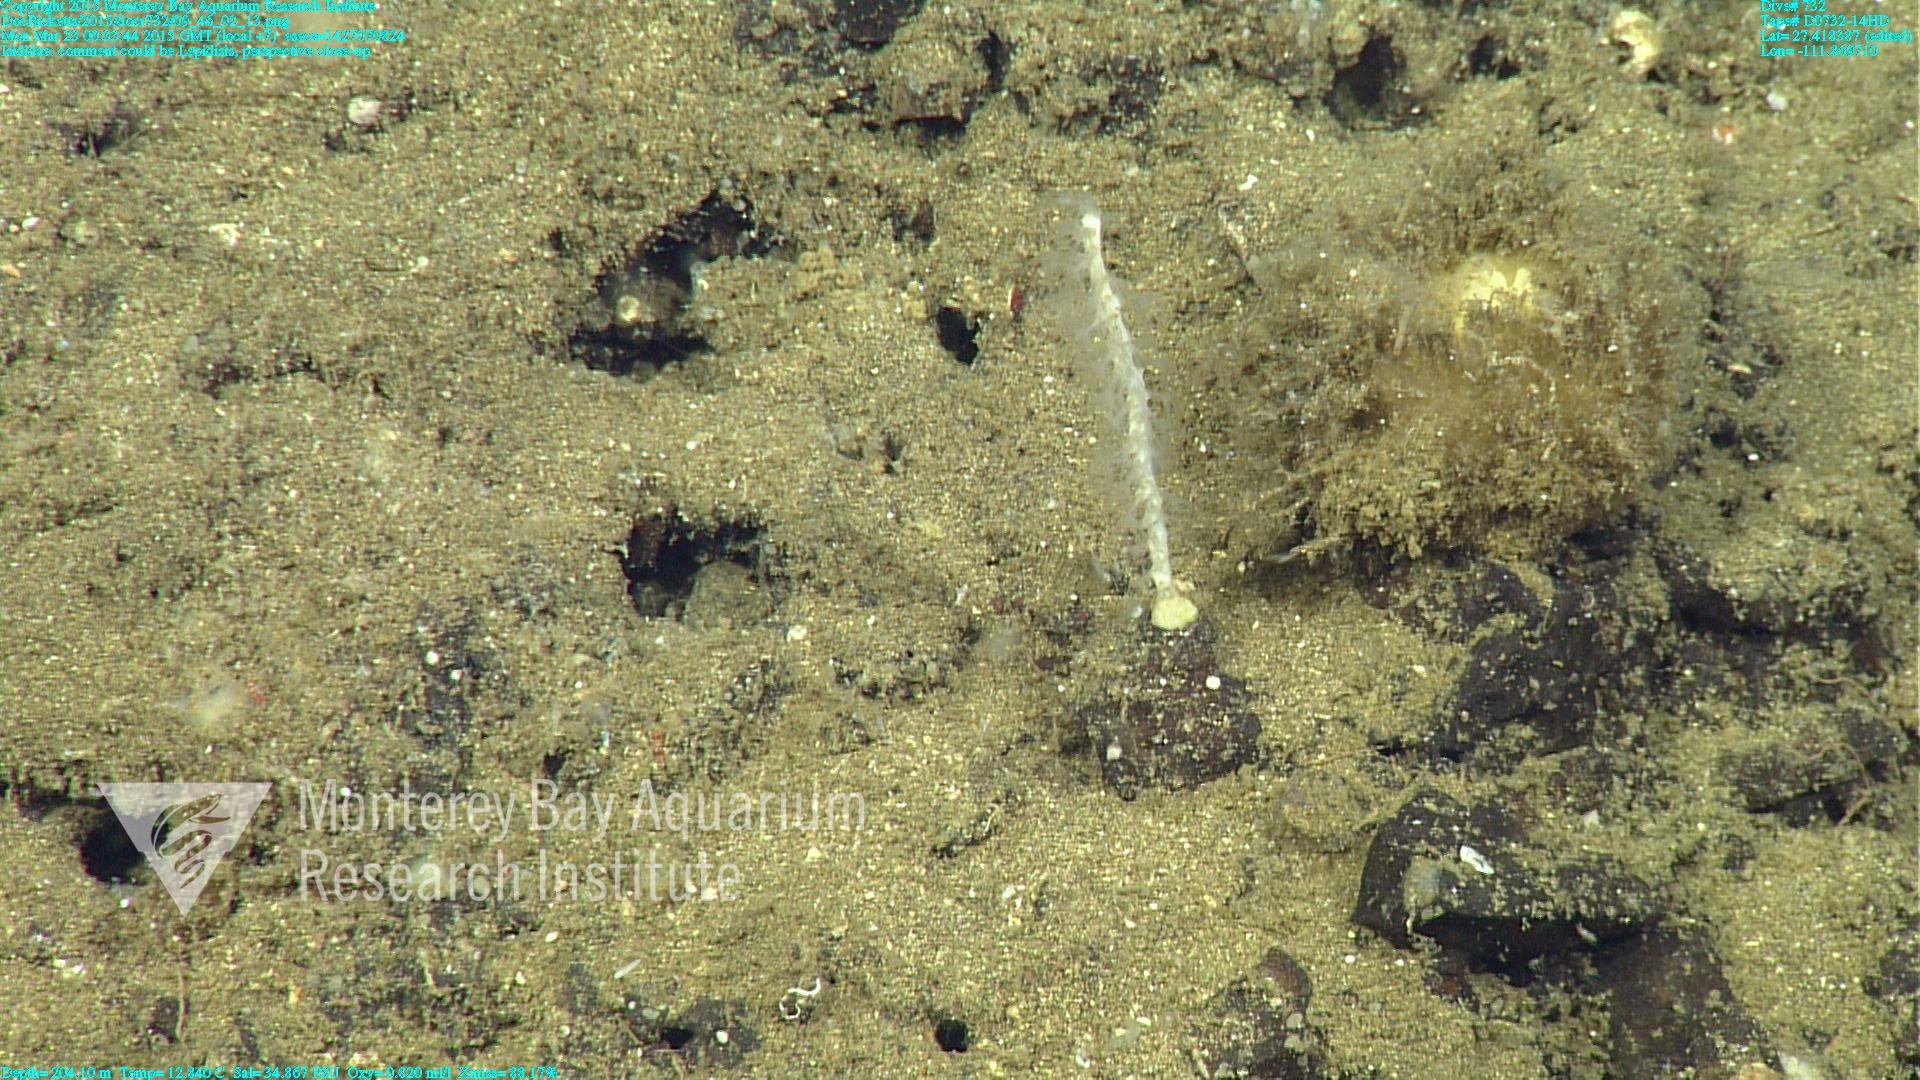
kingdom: Animalia
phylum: Cnidaria
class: Anthozoa
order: Scleralcyonacea
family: Keratoisididae
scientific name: Keratoisididae
